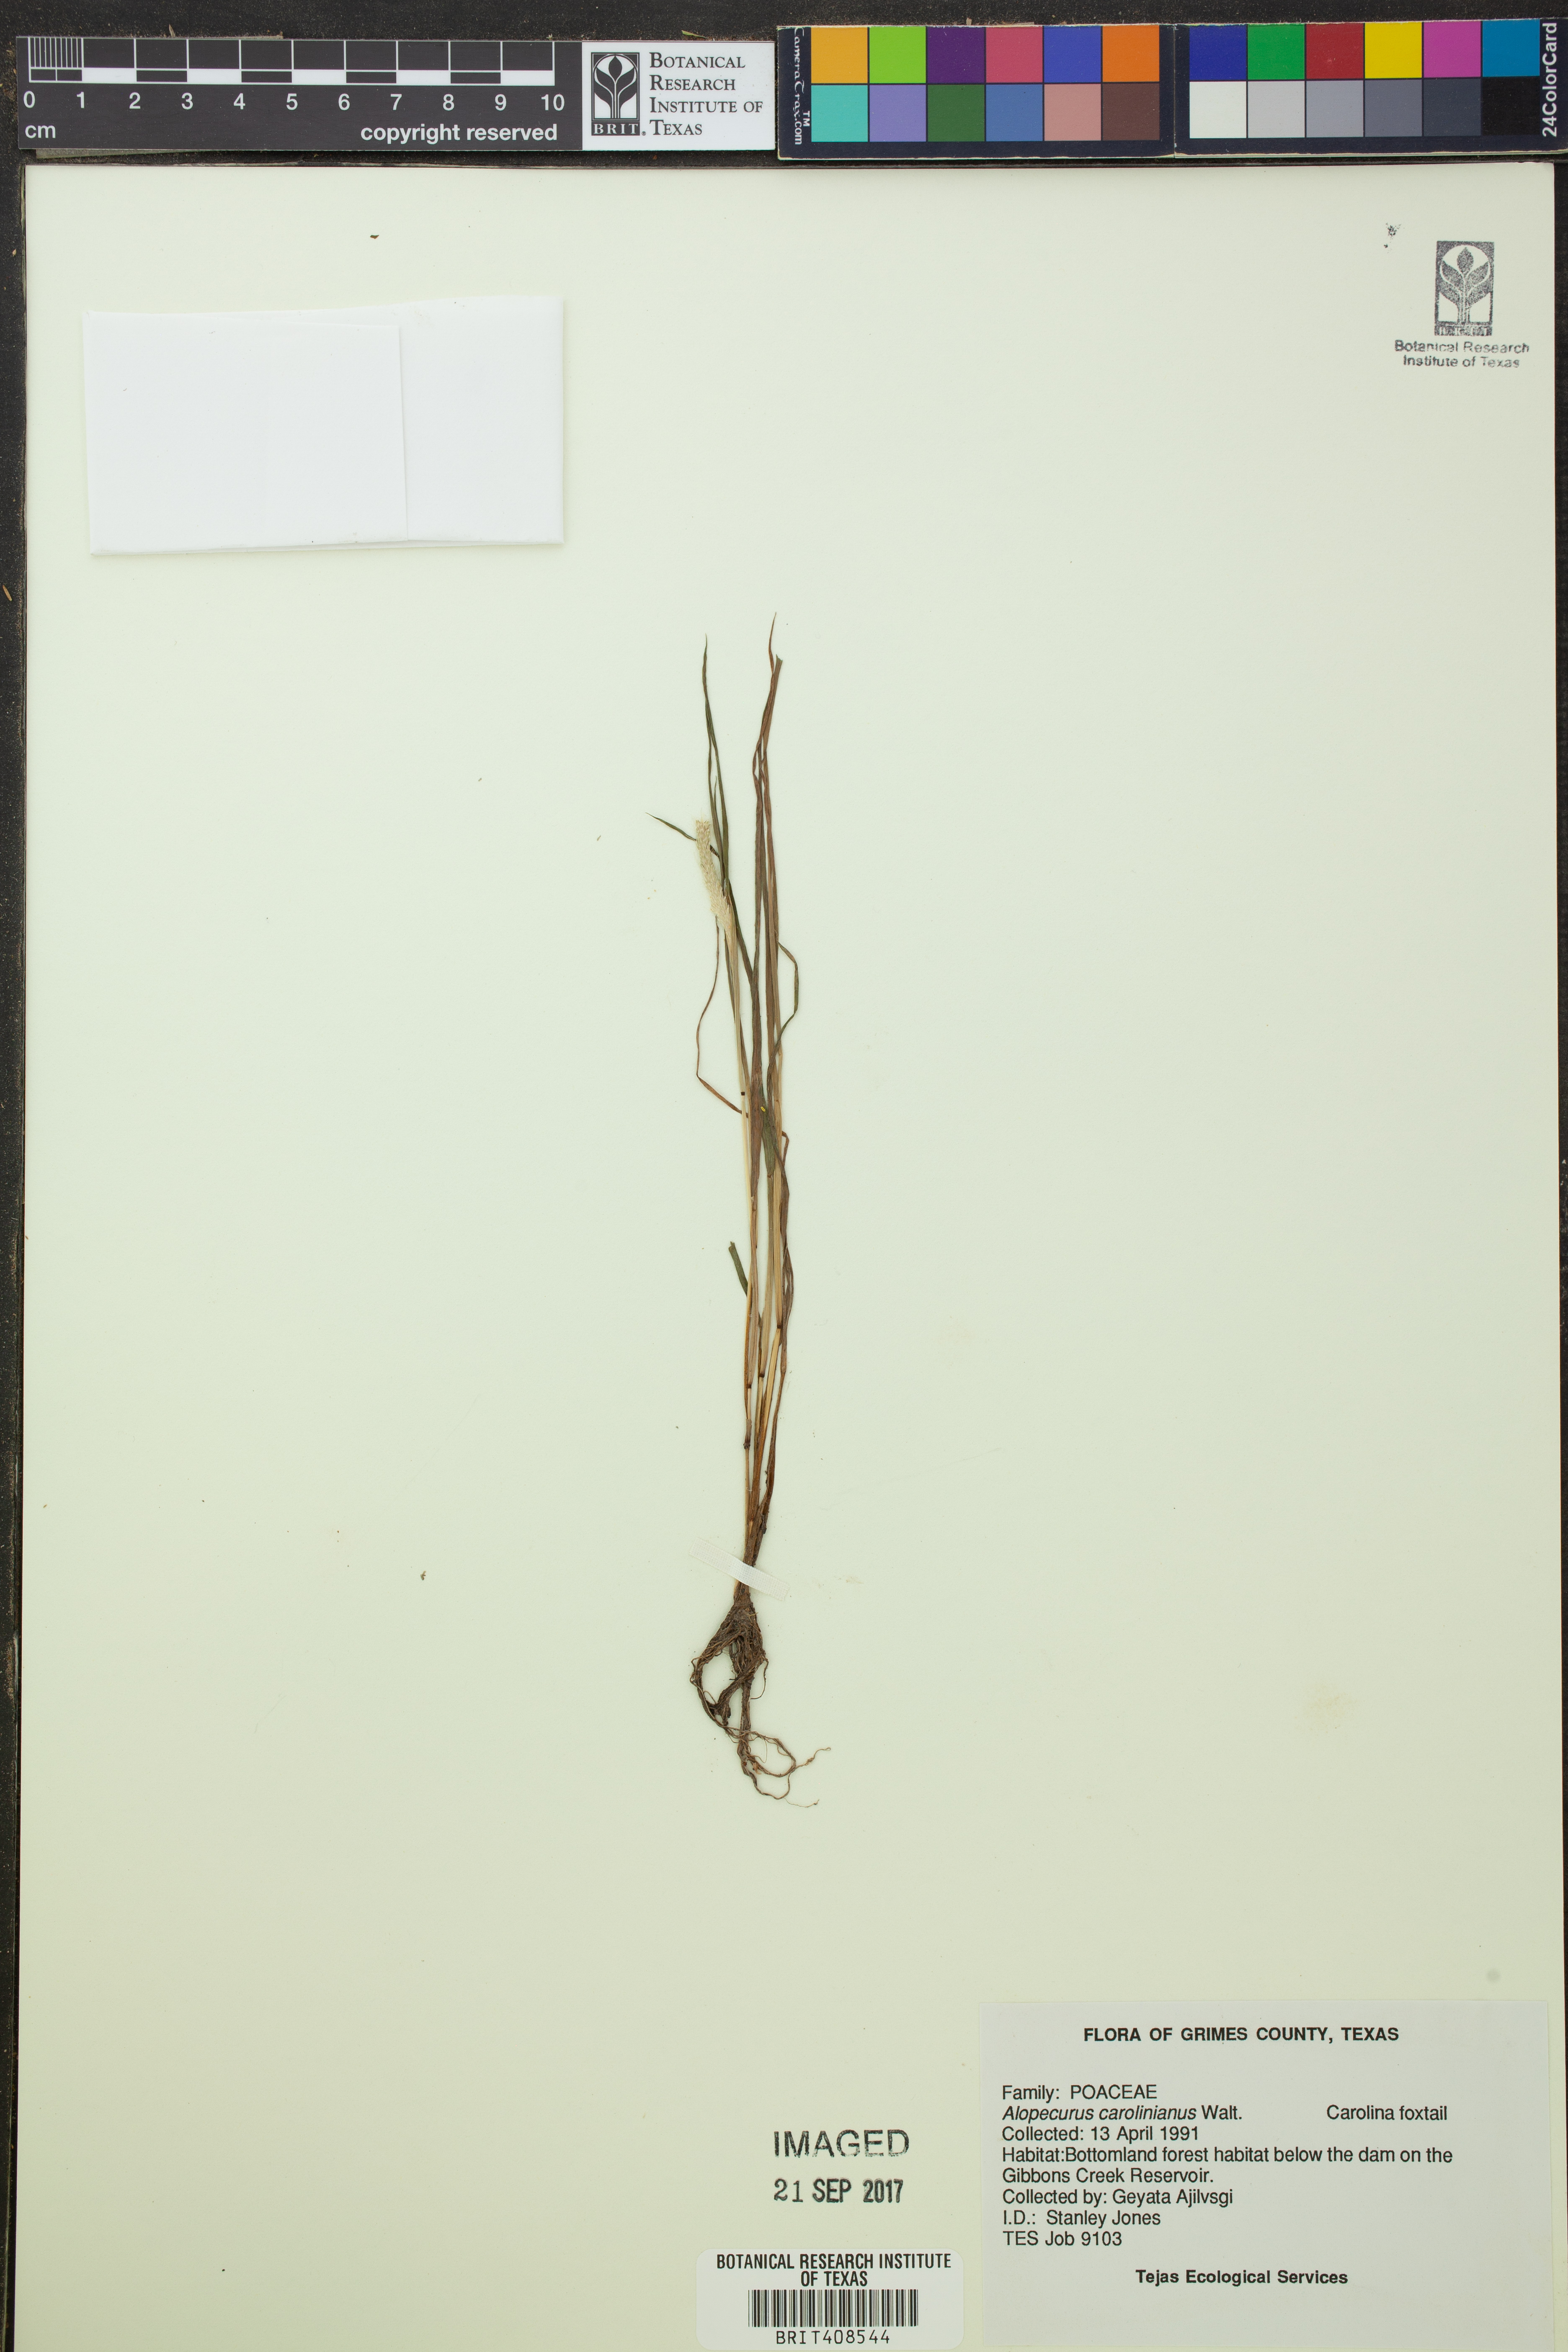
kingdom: Plantae
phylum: Tracheophyta
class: Liliopsida
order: Poales
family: Poaceae
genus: Alopecurus
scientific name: Alopecurus carolinianus
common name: Tufted foxtail
